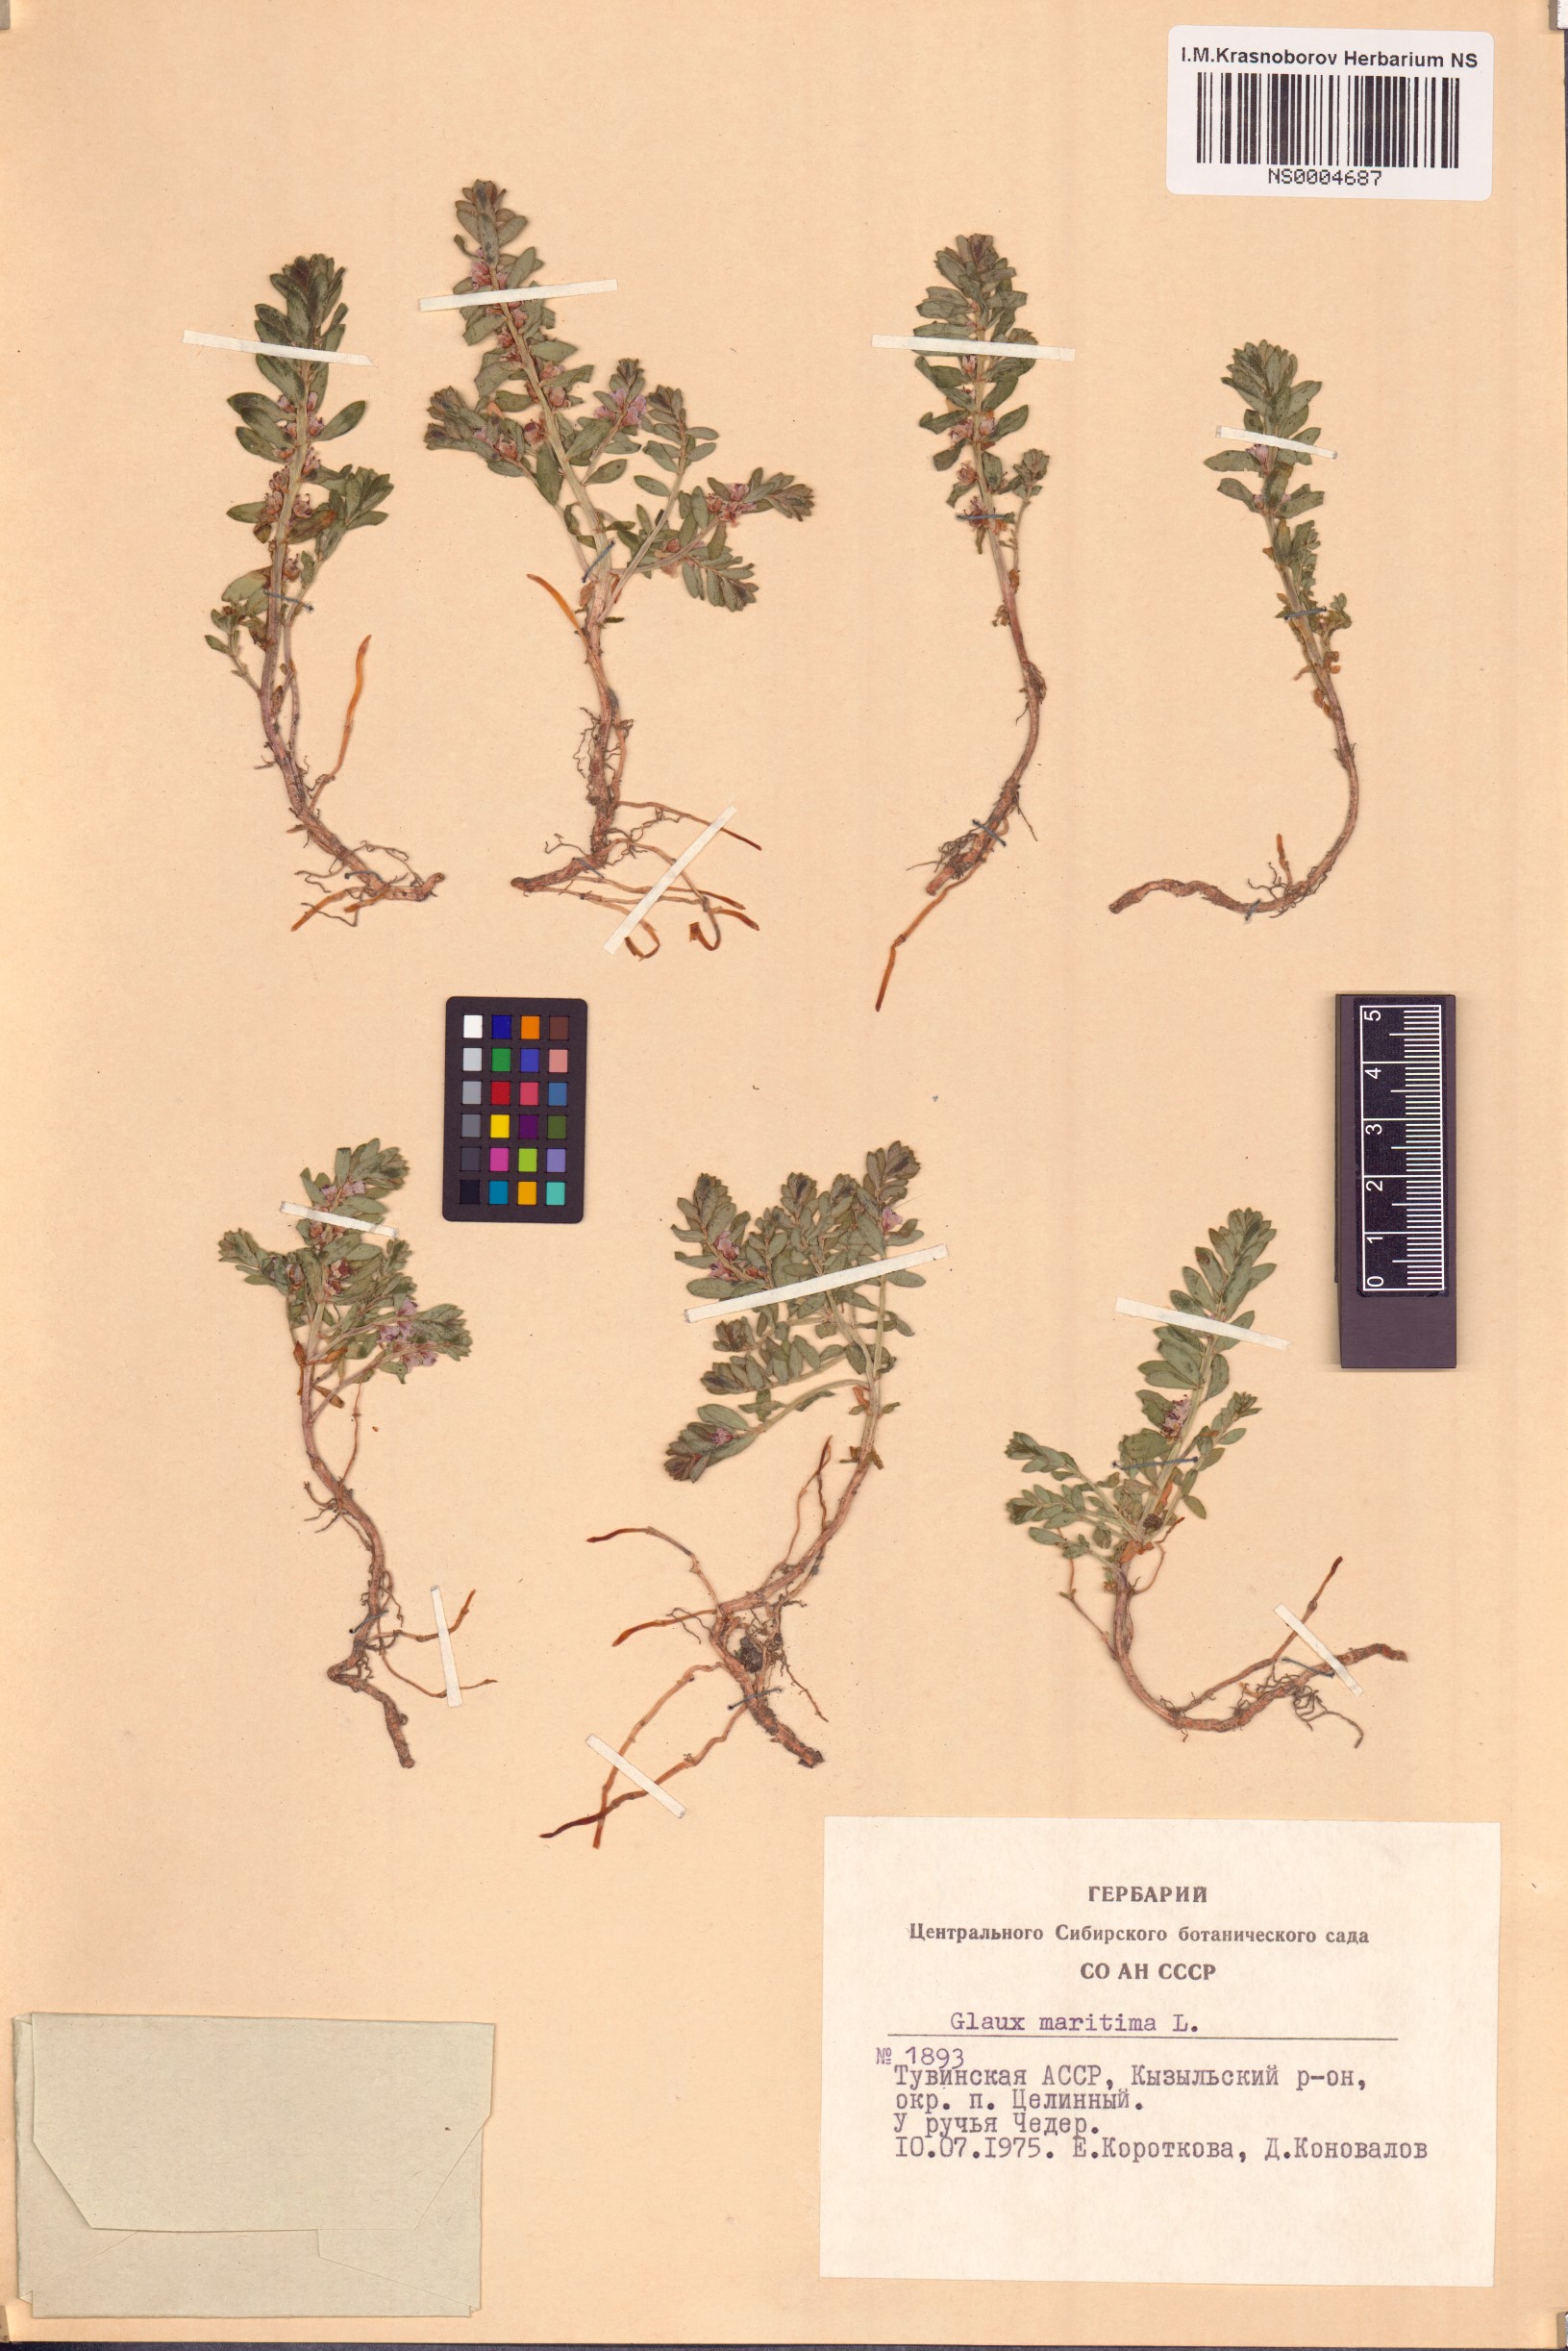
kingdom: Plantae
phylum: Tracheophyta
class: Magnoliopsida
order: Ericales
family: Primulaceae
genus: Lysimachia
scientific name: Lysimachia maritima
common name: Sea milkwort
